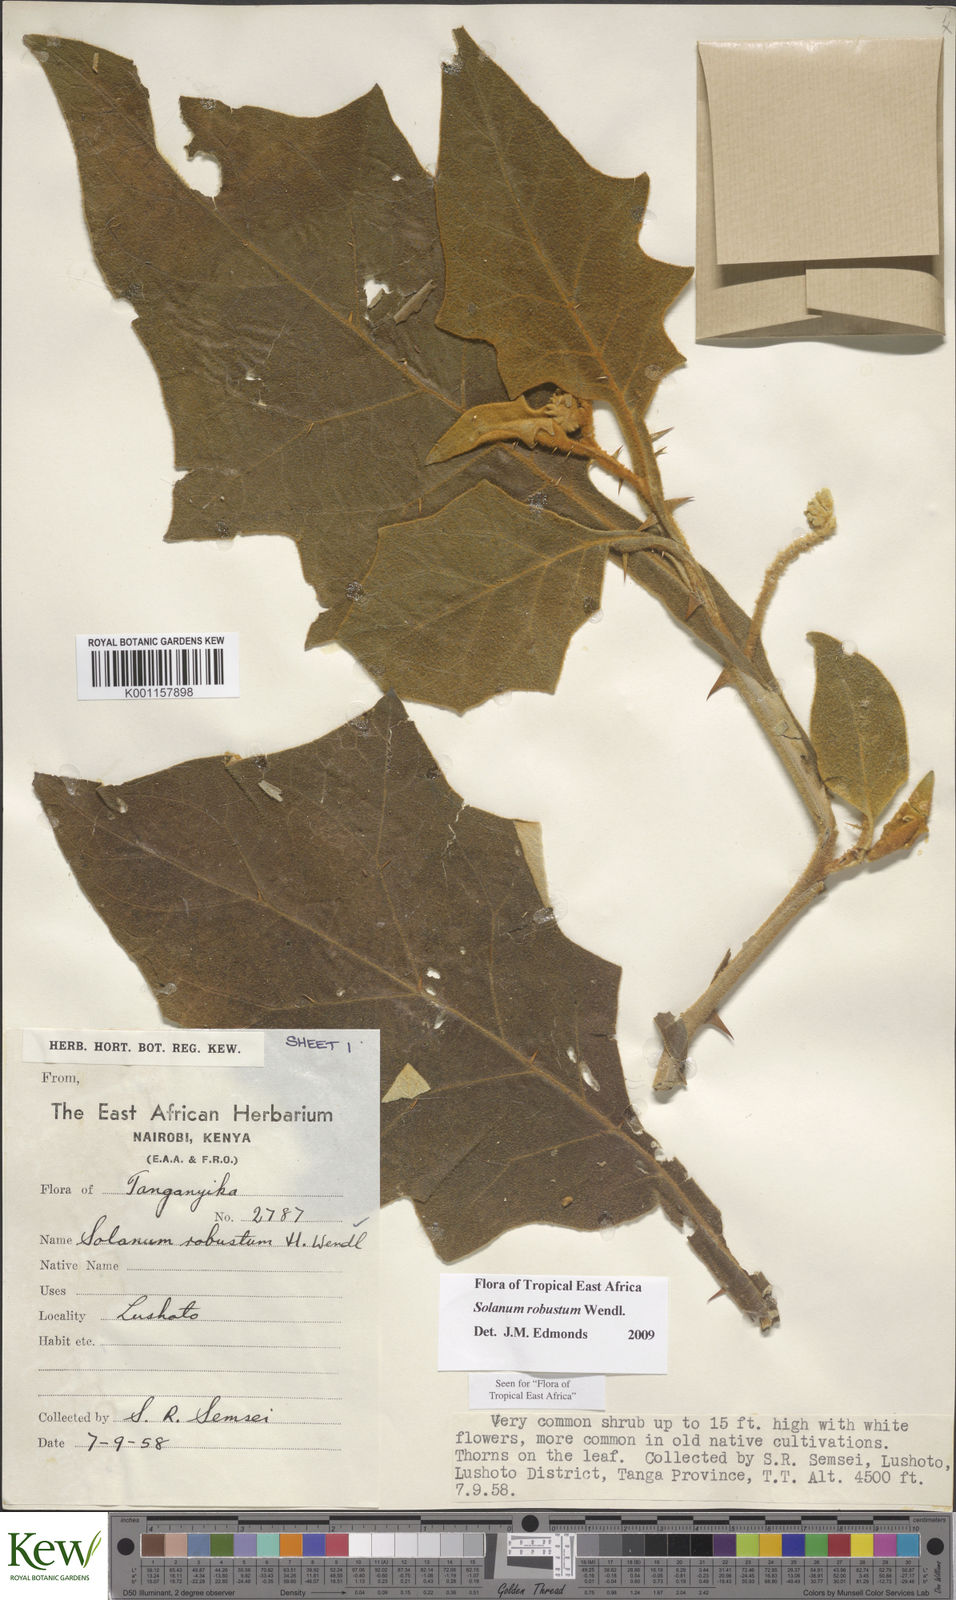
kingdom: Plantae
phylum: Tracheophyta
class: Magnoliopsida
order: Solanales
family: Solanaceae
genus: Solanum
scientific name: Solanum robustum
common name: Shrubby nightshade
